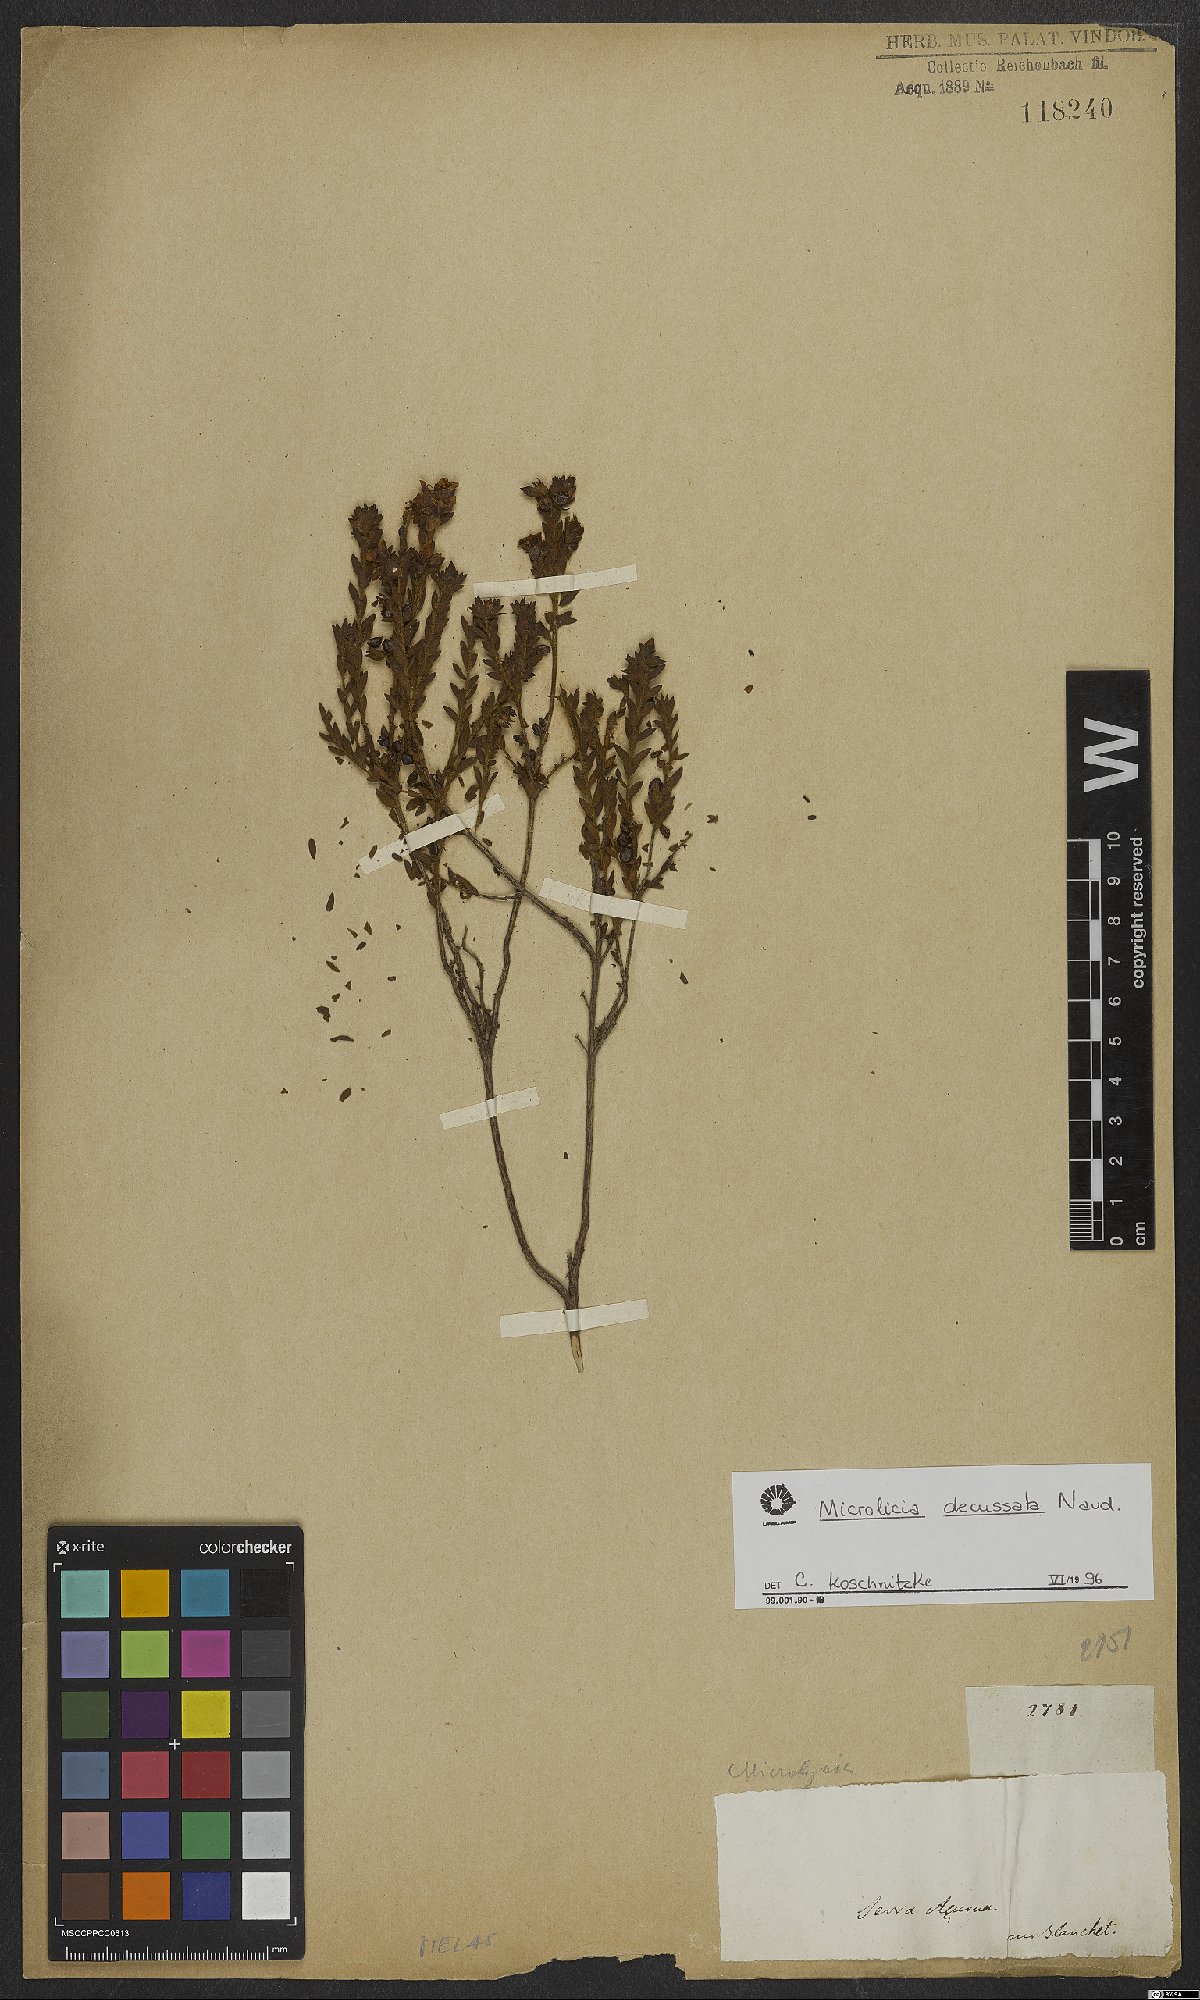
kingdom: Plantae
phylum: Tracheophyta
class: Magnoliopsida
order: Myrtales
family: Melastomataceae
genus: Microlicia
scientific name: Microlicia fasciculata
